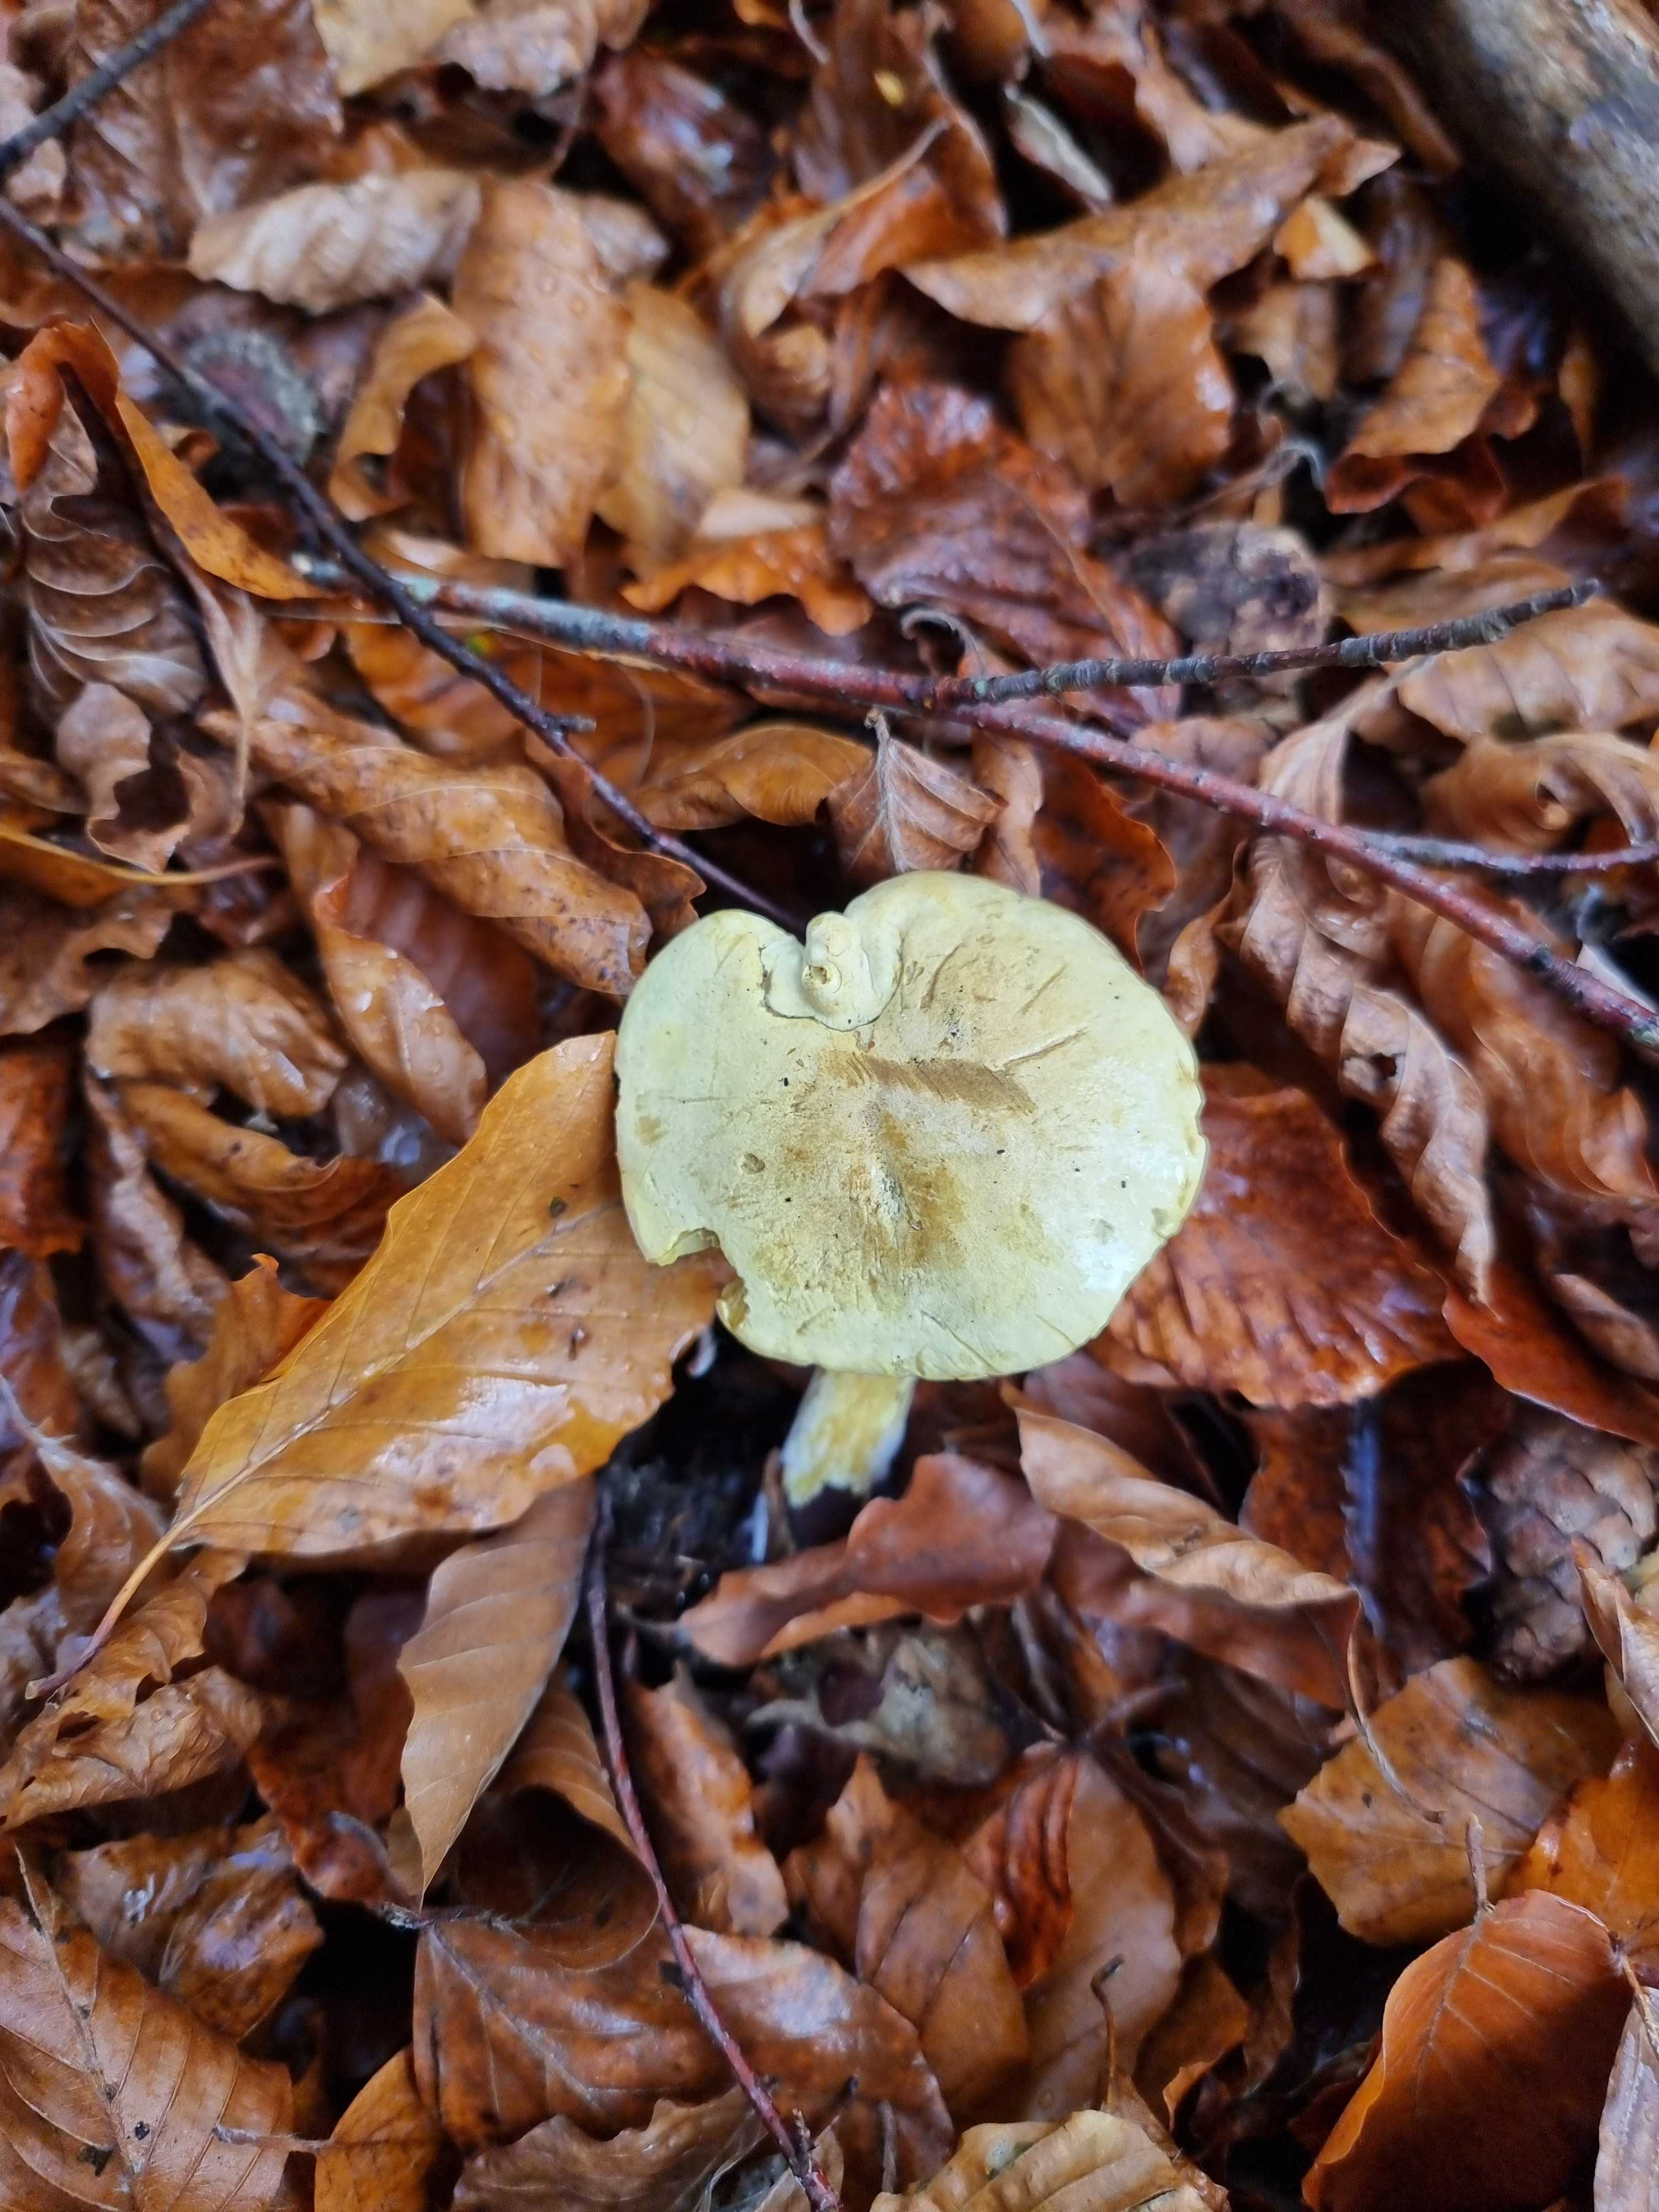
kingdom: Fungi
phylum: Basidiomycota
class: Agaricomycetes
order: Agaricales
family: Tricholomataceae
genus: Tricholoma
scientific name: Tricholoma sulphureum
